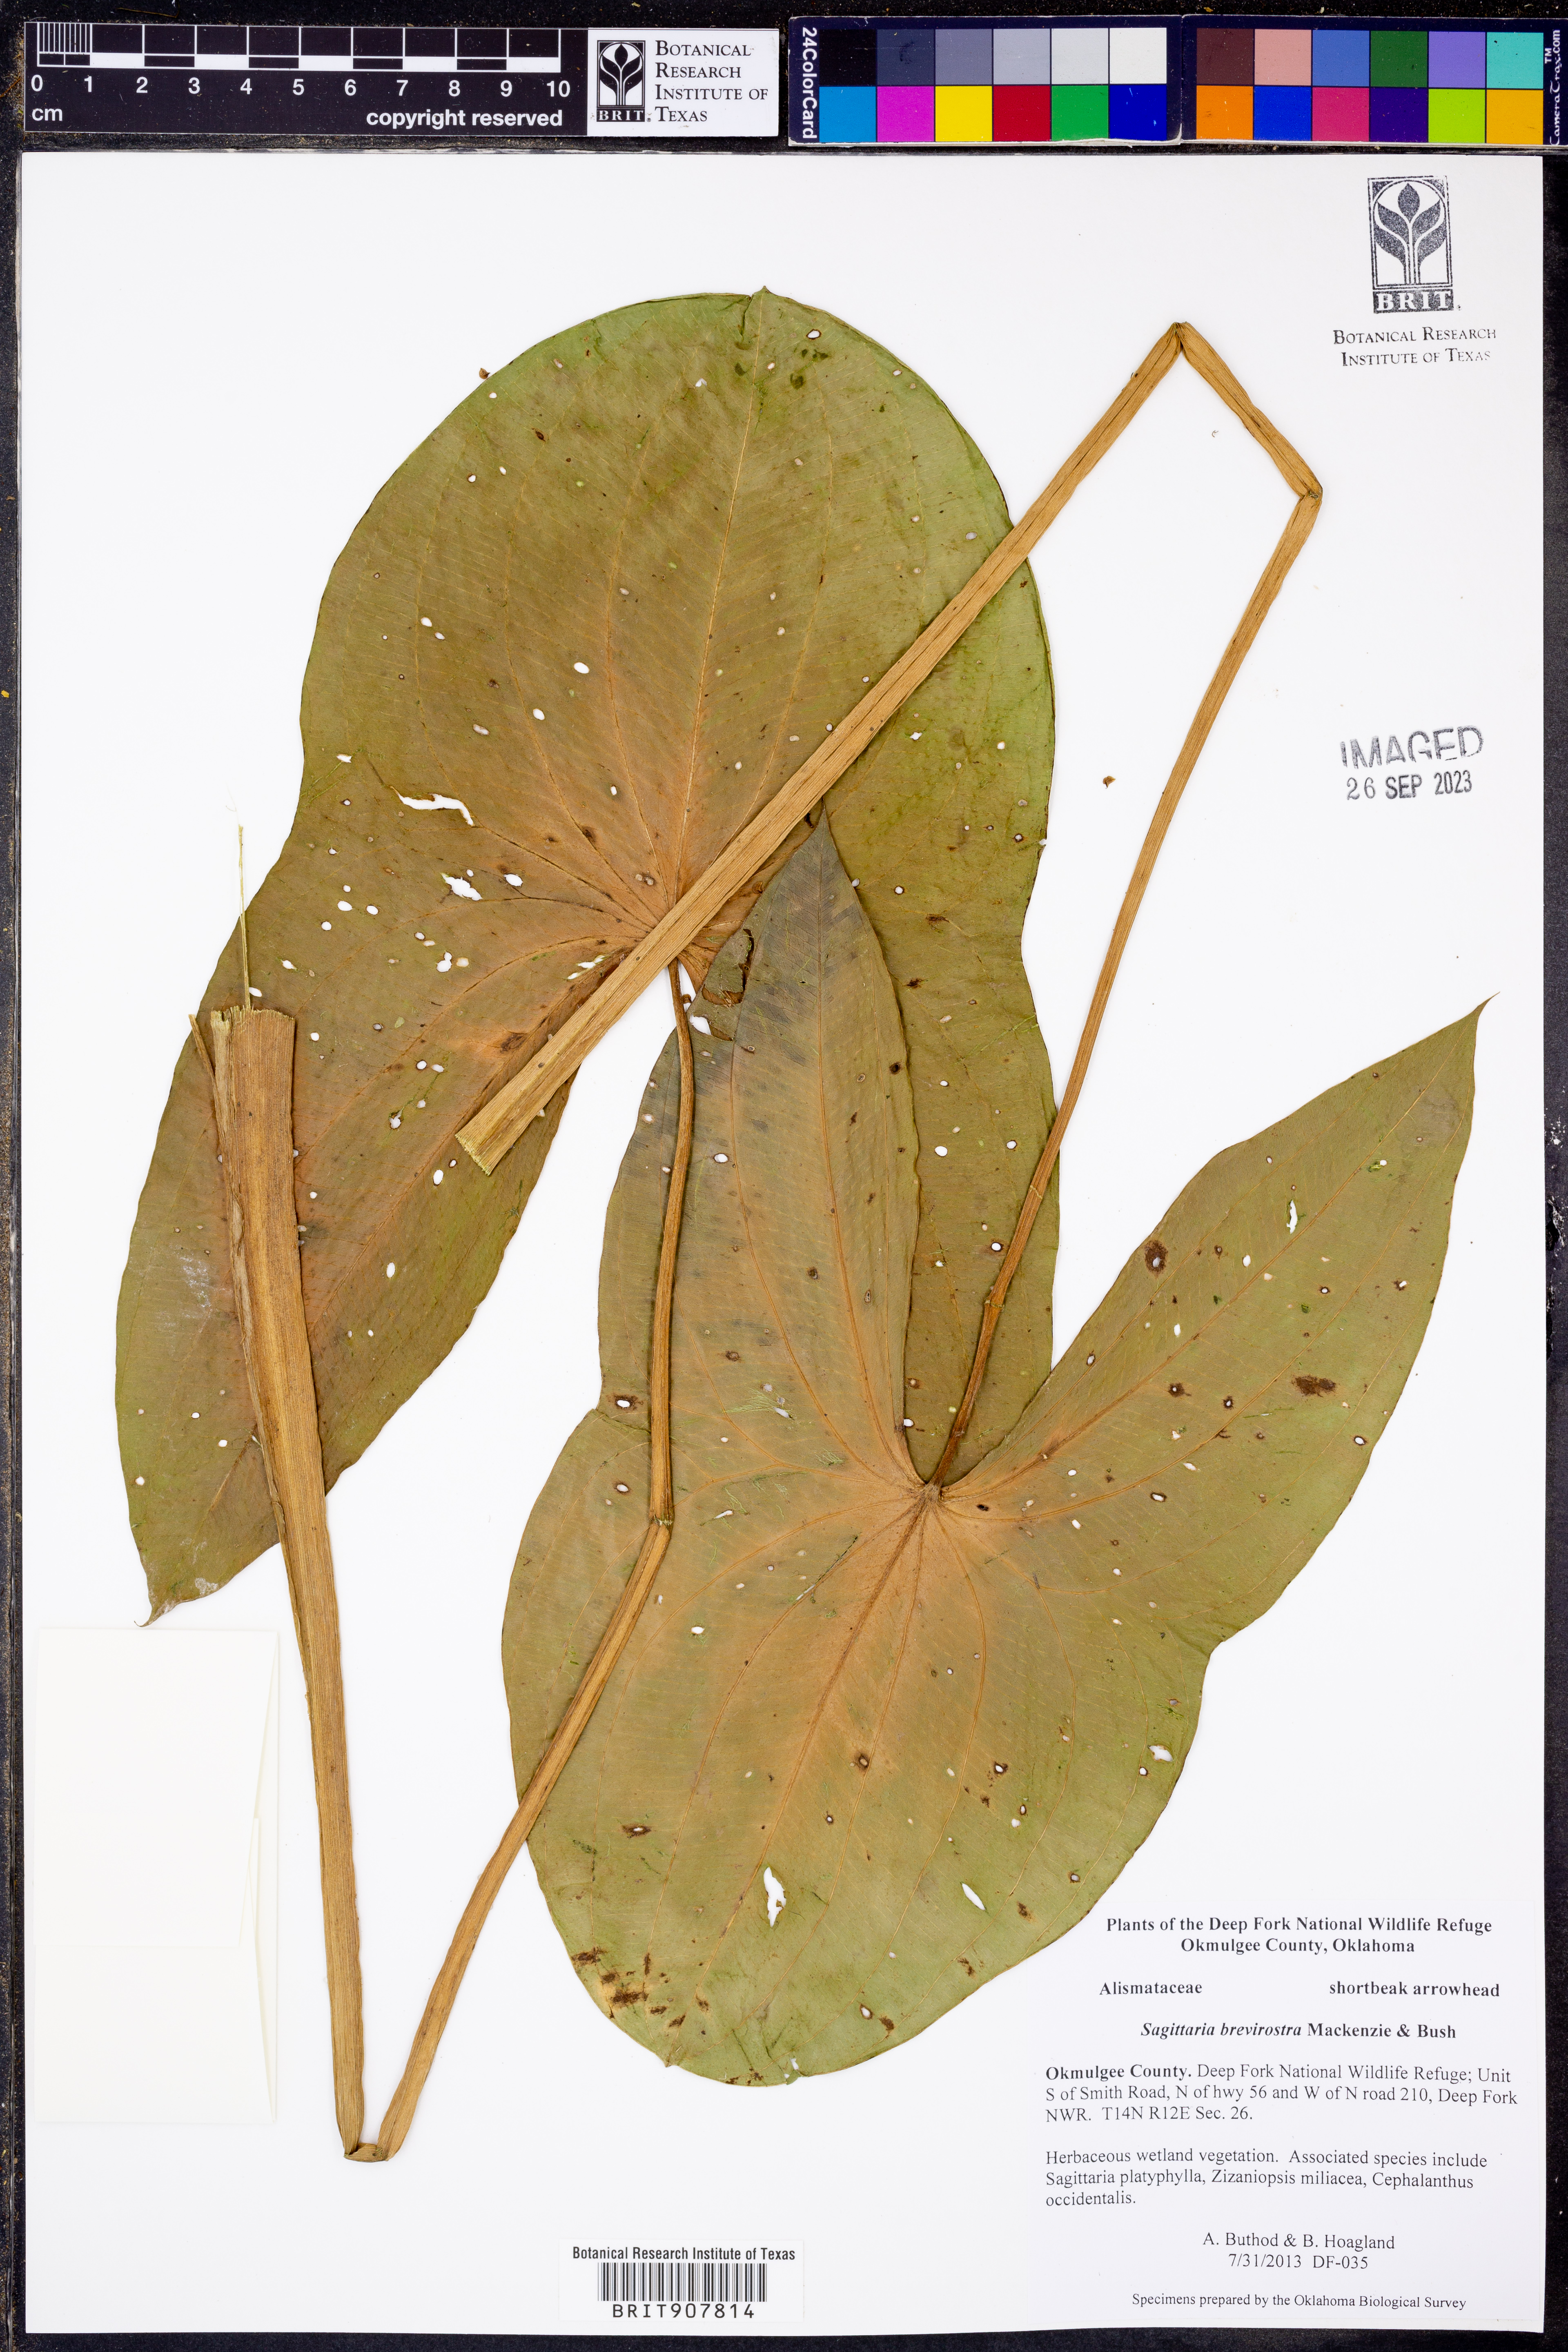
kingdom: Plantae
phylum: Tracheophyta
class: Liliopsida
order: Alismatales
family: Alismataceae
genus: Sagittaria
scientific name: Sagittaria brevirostra
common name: Midwestern arrowhead
